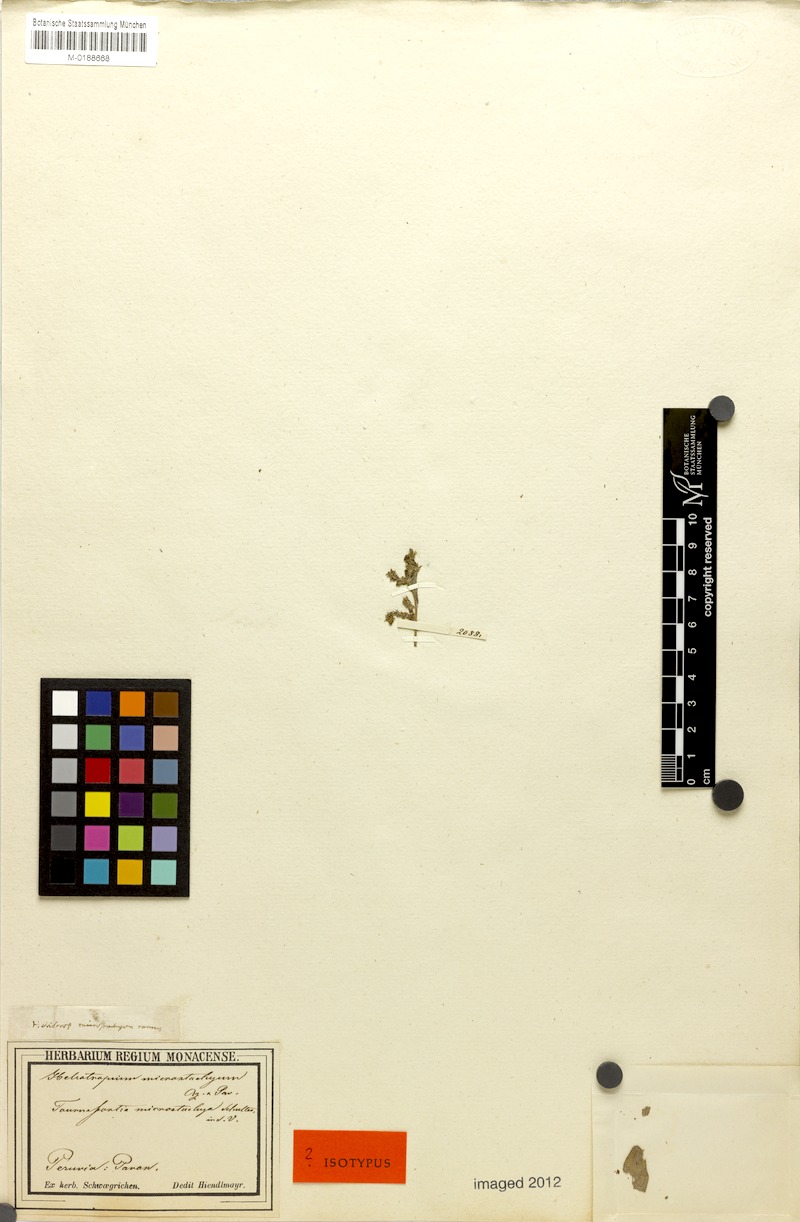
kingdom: Plantae
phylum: Tracheophyta
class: Magnoliopsida
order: Boraginales
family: Heliotropiaceae
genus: Heliotropium
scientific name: Heliotropium microstachyum
